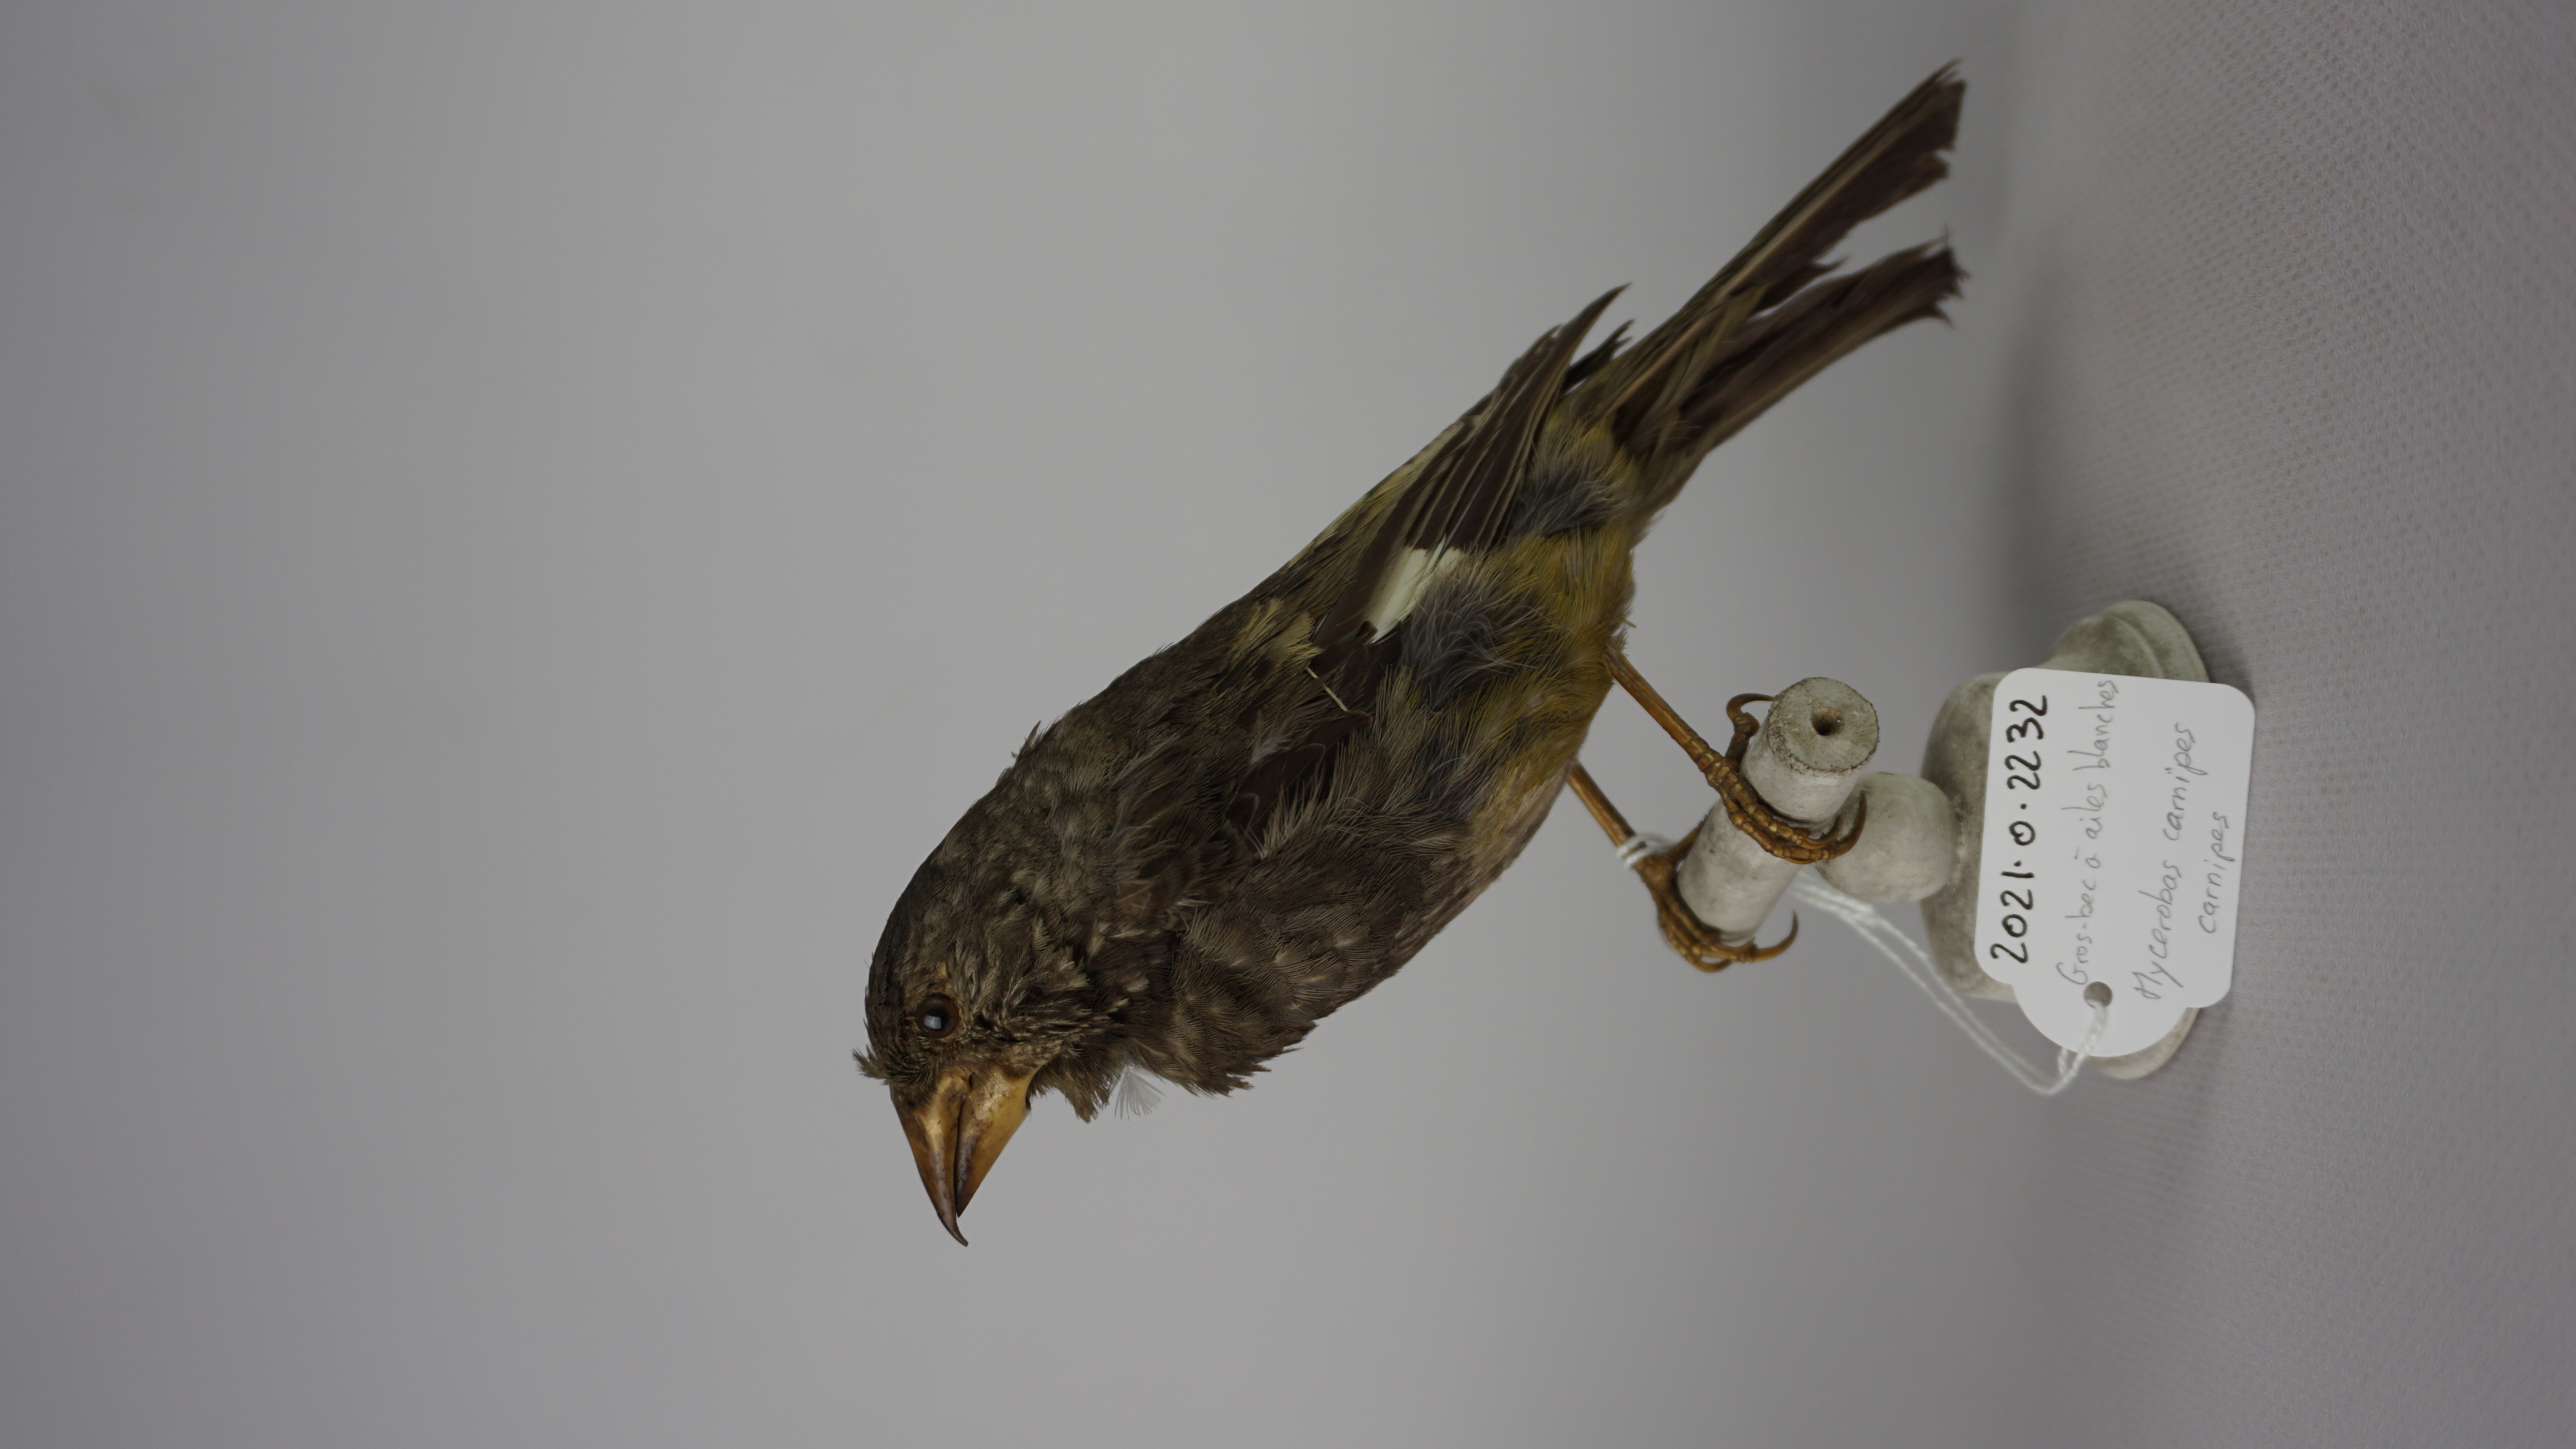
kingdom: Animalia
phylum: Chordata
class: Aves
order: Passeriformes
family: Fringillidae
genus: Mycerobas
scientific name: Mycerobas carnipes
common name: White-winged grosbeak
